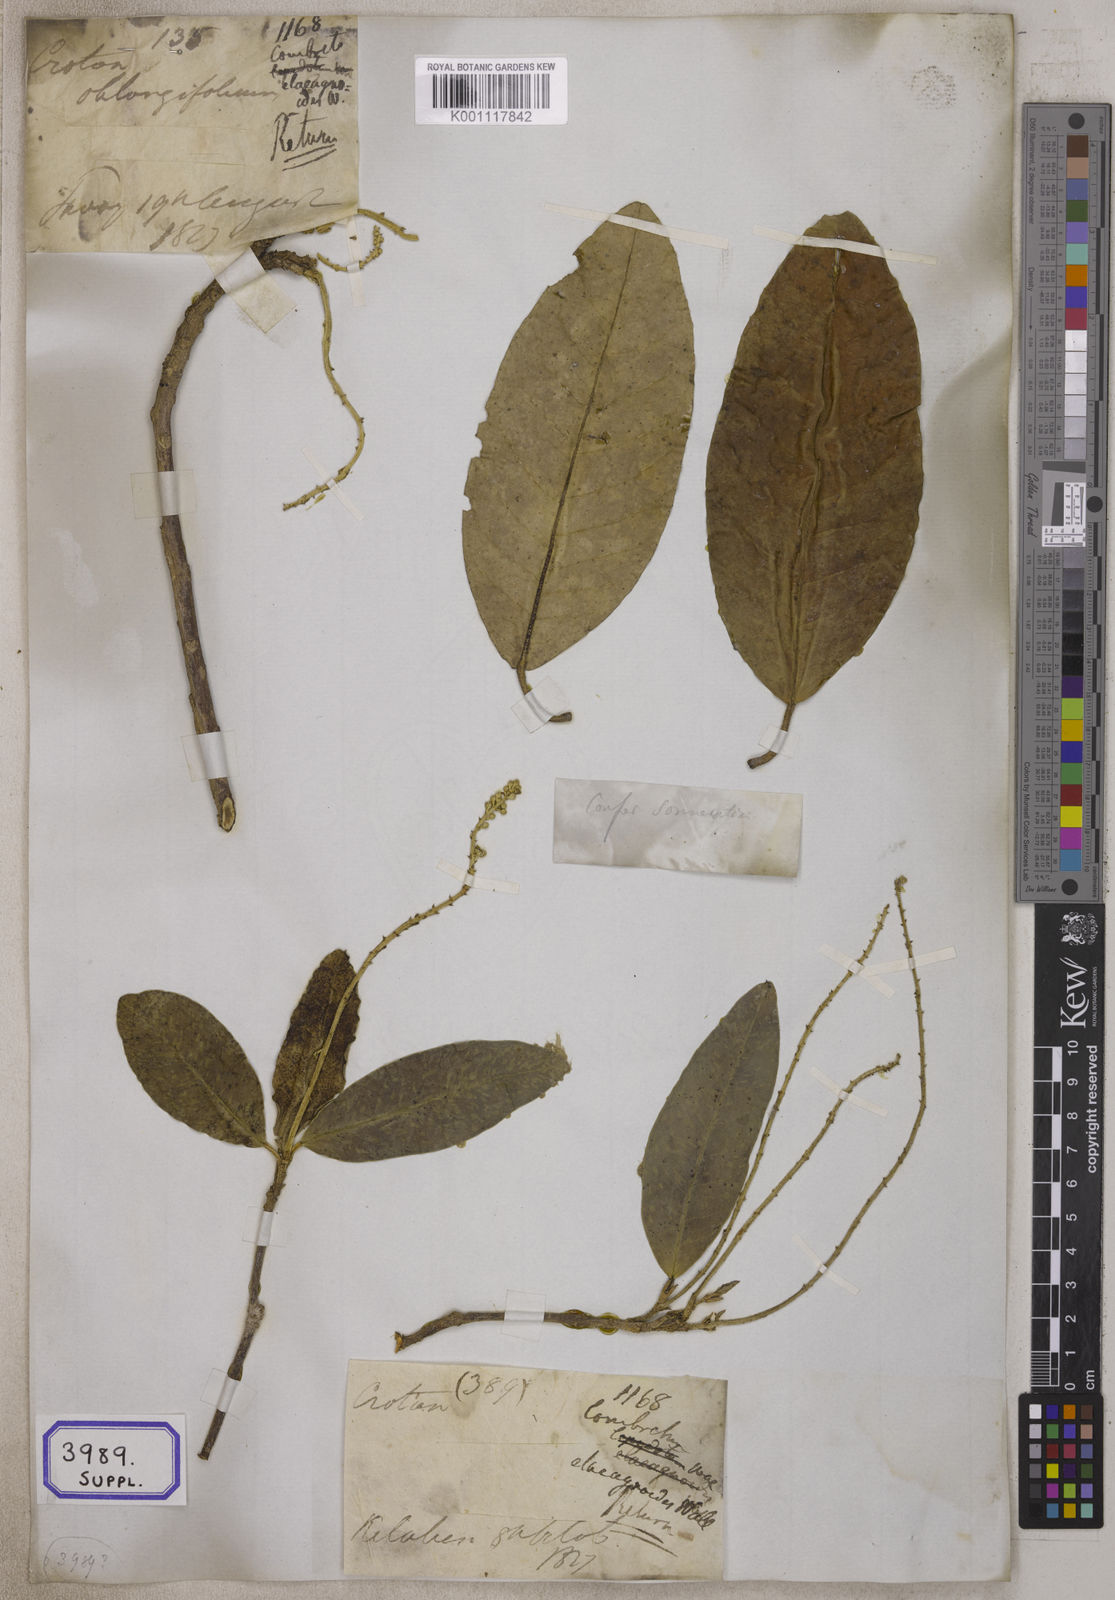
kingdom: Plantae
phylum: Tracheophyta
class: Magnoliopsida
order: Myrtales
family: Combretaceae
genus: Combretum
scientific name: Combretum quadrangulare
